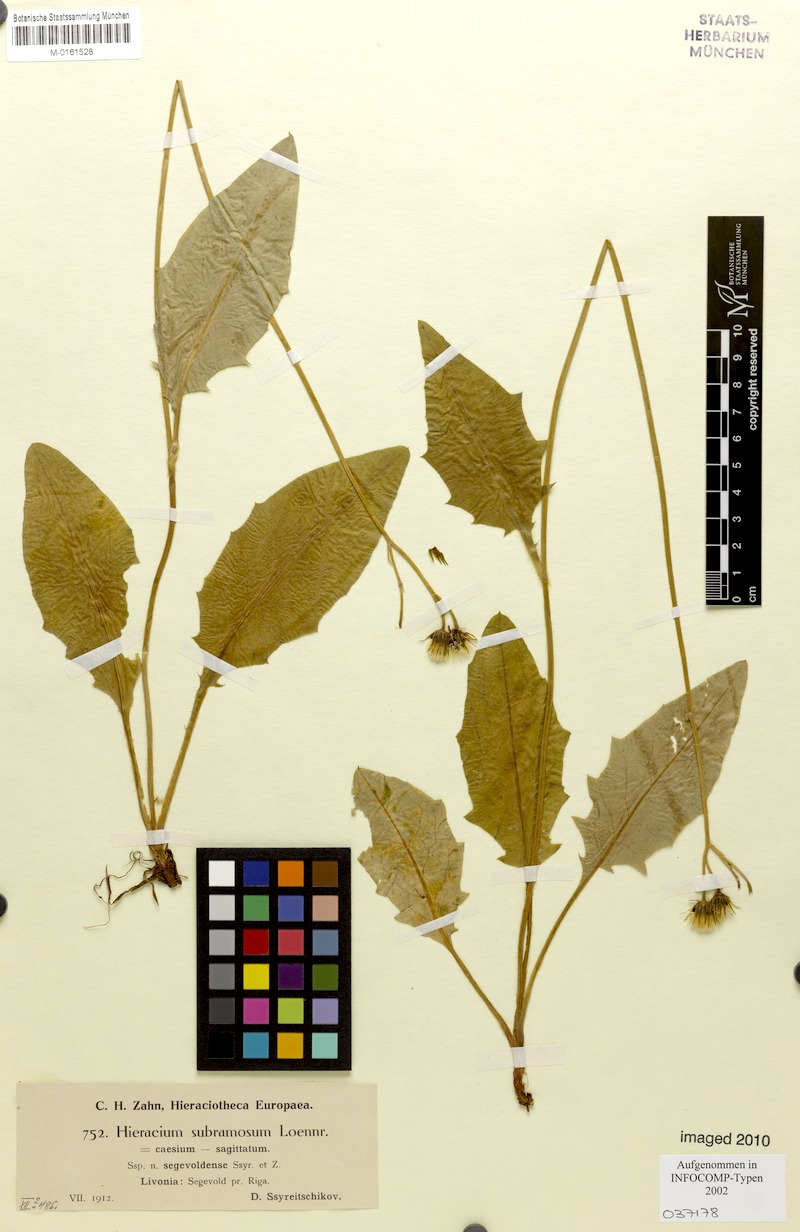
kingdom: Plantae
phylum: Tracheophyta
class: Magnoliopsida
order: Asterales
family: Asteraceae
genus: Hieracium
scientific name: Hieracium fuscocinereum
